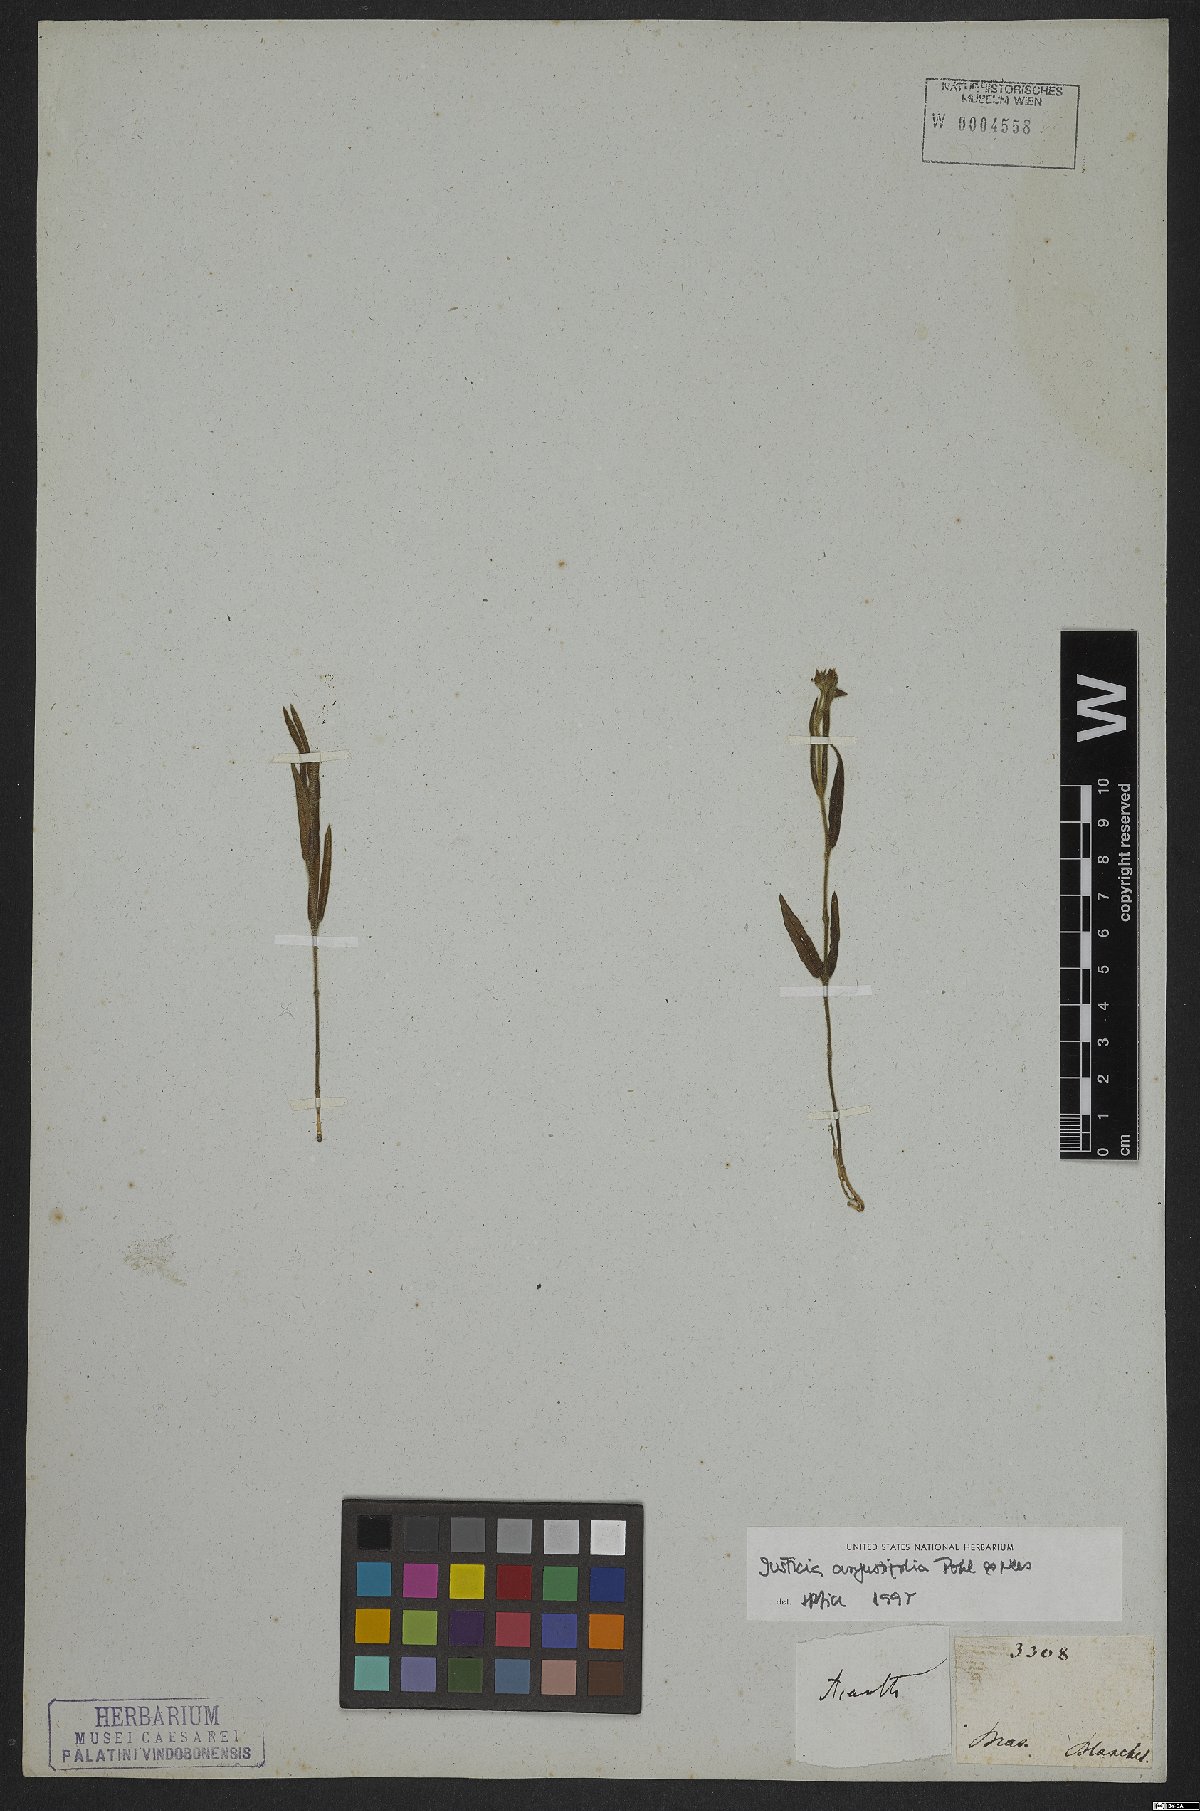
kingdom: Plantae
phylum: Tracheophyta
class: Magnoliopsida
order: Lamiales
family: Acanthaceae
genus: Dianthera
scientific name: Dianthera angustifolia
